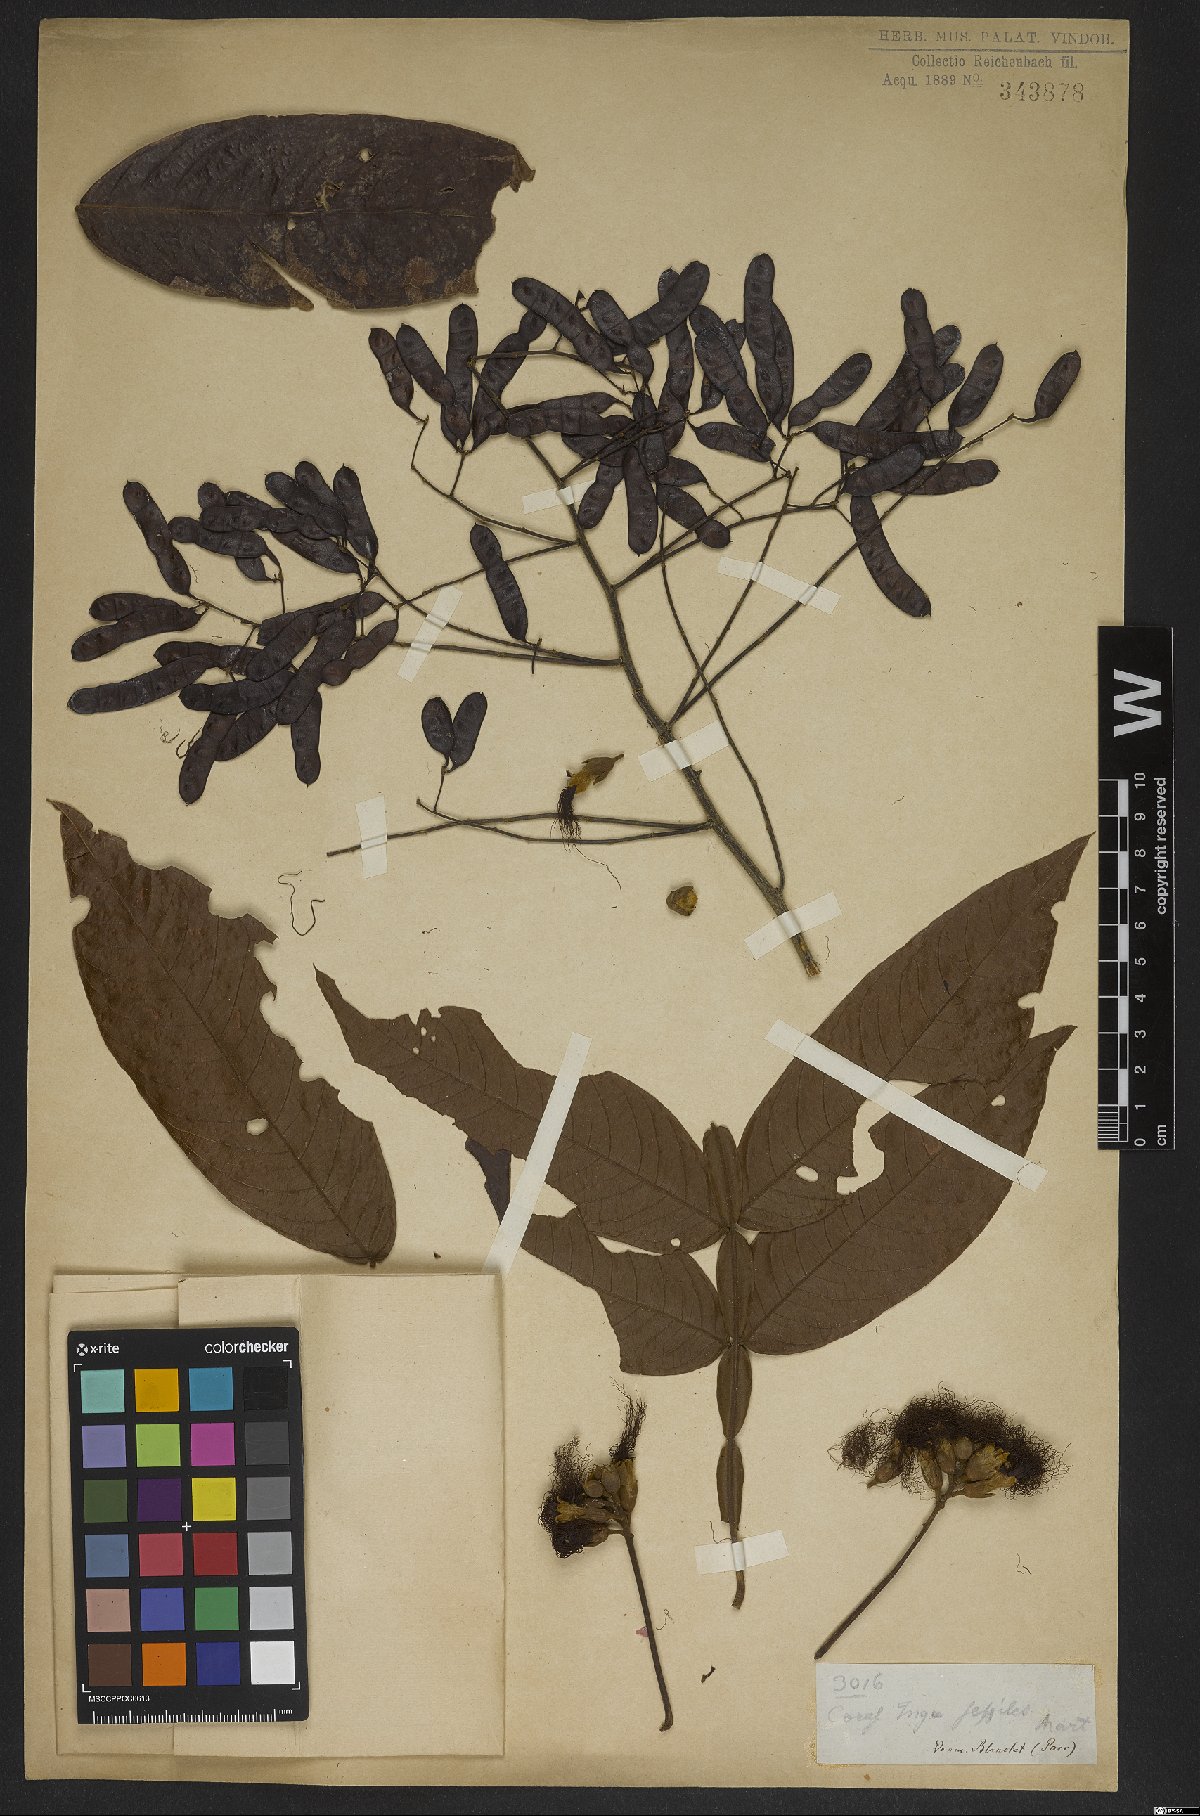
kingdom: Plantae
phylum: Tracheophyta
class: Magnoliopsida
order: Fabales
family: Fabaceae
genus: Inga
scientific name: Inga sessilis
